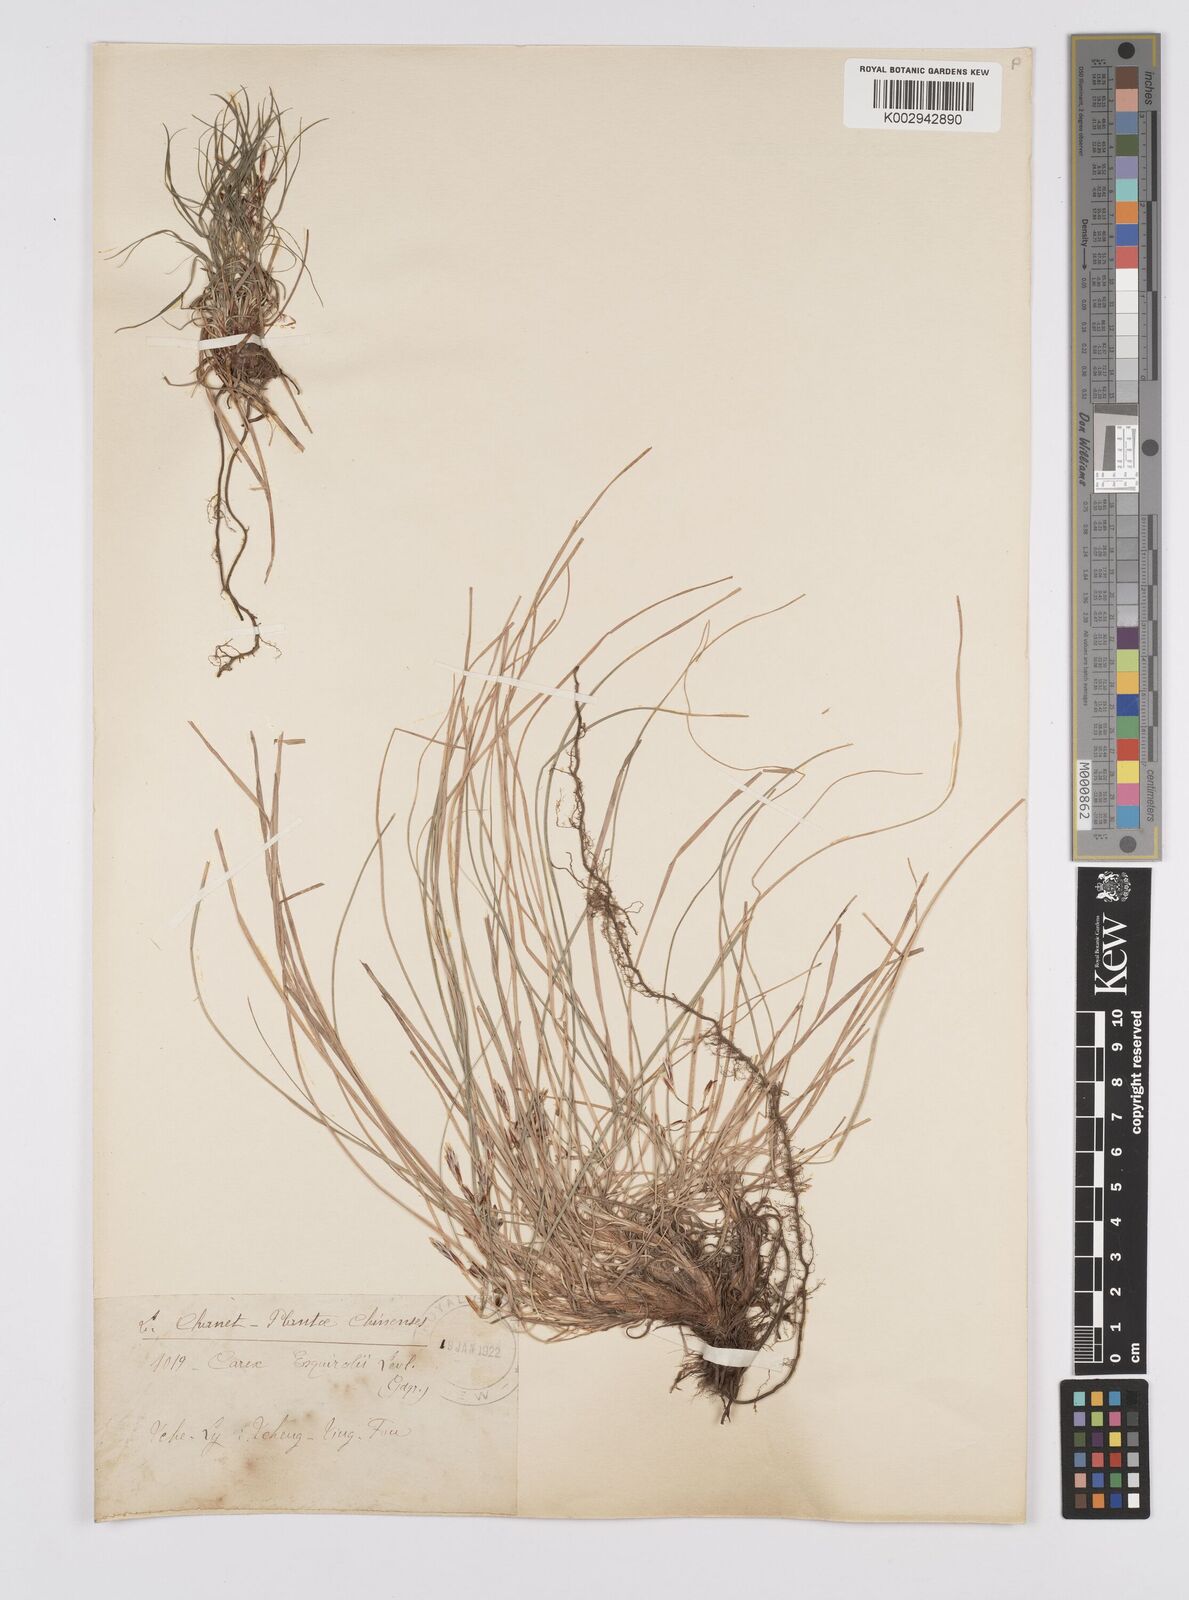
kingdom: Plantae
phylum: Tracheophyta
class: Liliopsida
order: Poales
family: Cyperaceae
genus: Carex
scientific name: Carex esquirolii
